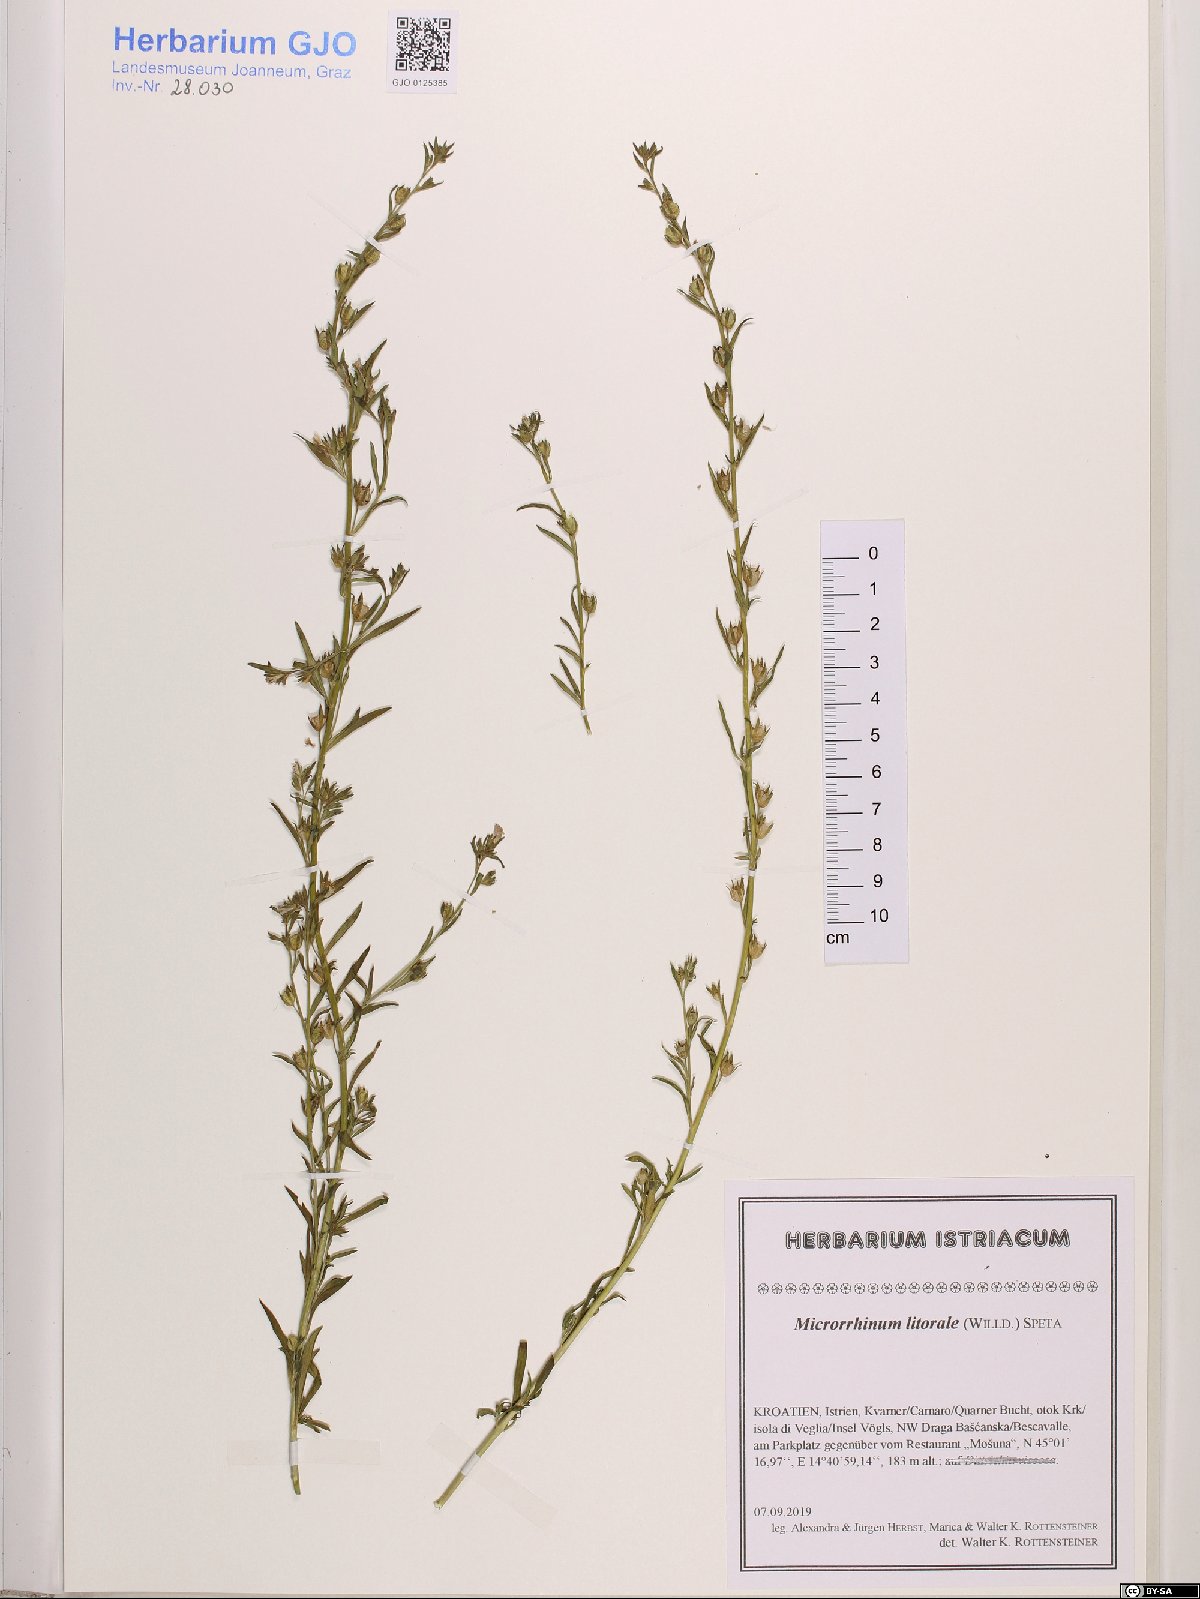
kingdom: Plantae
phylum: Tracheophyta
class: Magnoliopsida
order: Lamiales
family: Plantaginaceae
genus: Chaenorhinum
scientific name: Chaenorhinum litorale
